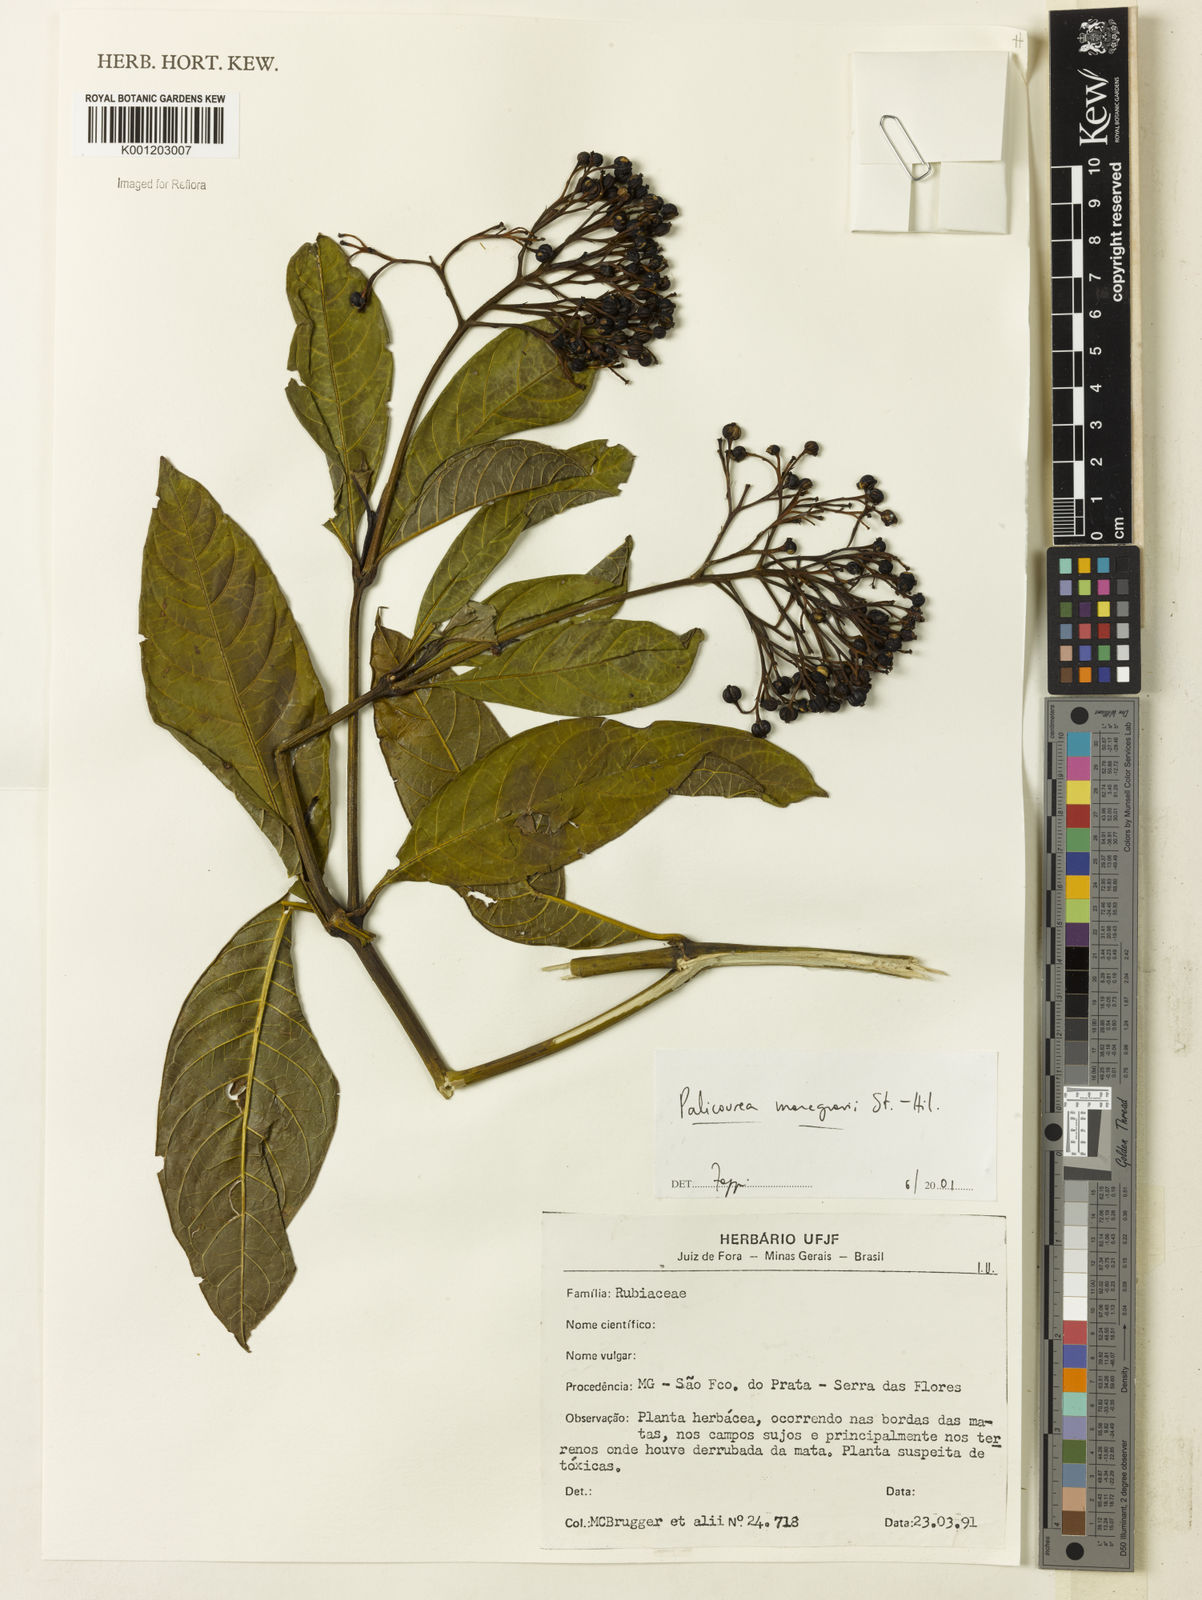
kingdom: Plantae
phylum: Tracheophyta
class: Magnoliopsida
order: Gentianales
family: Rubiaceae
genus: Palicourea
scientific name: Palicourea marcgravii
